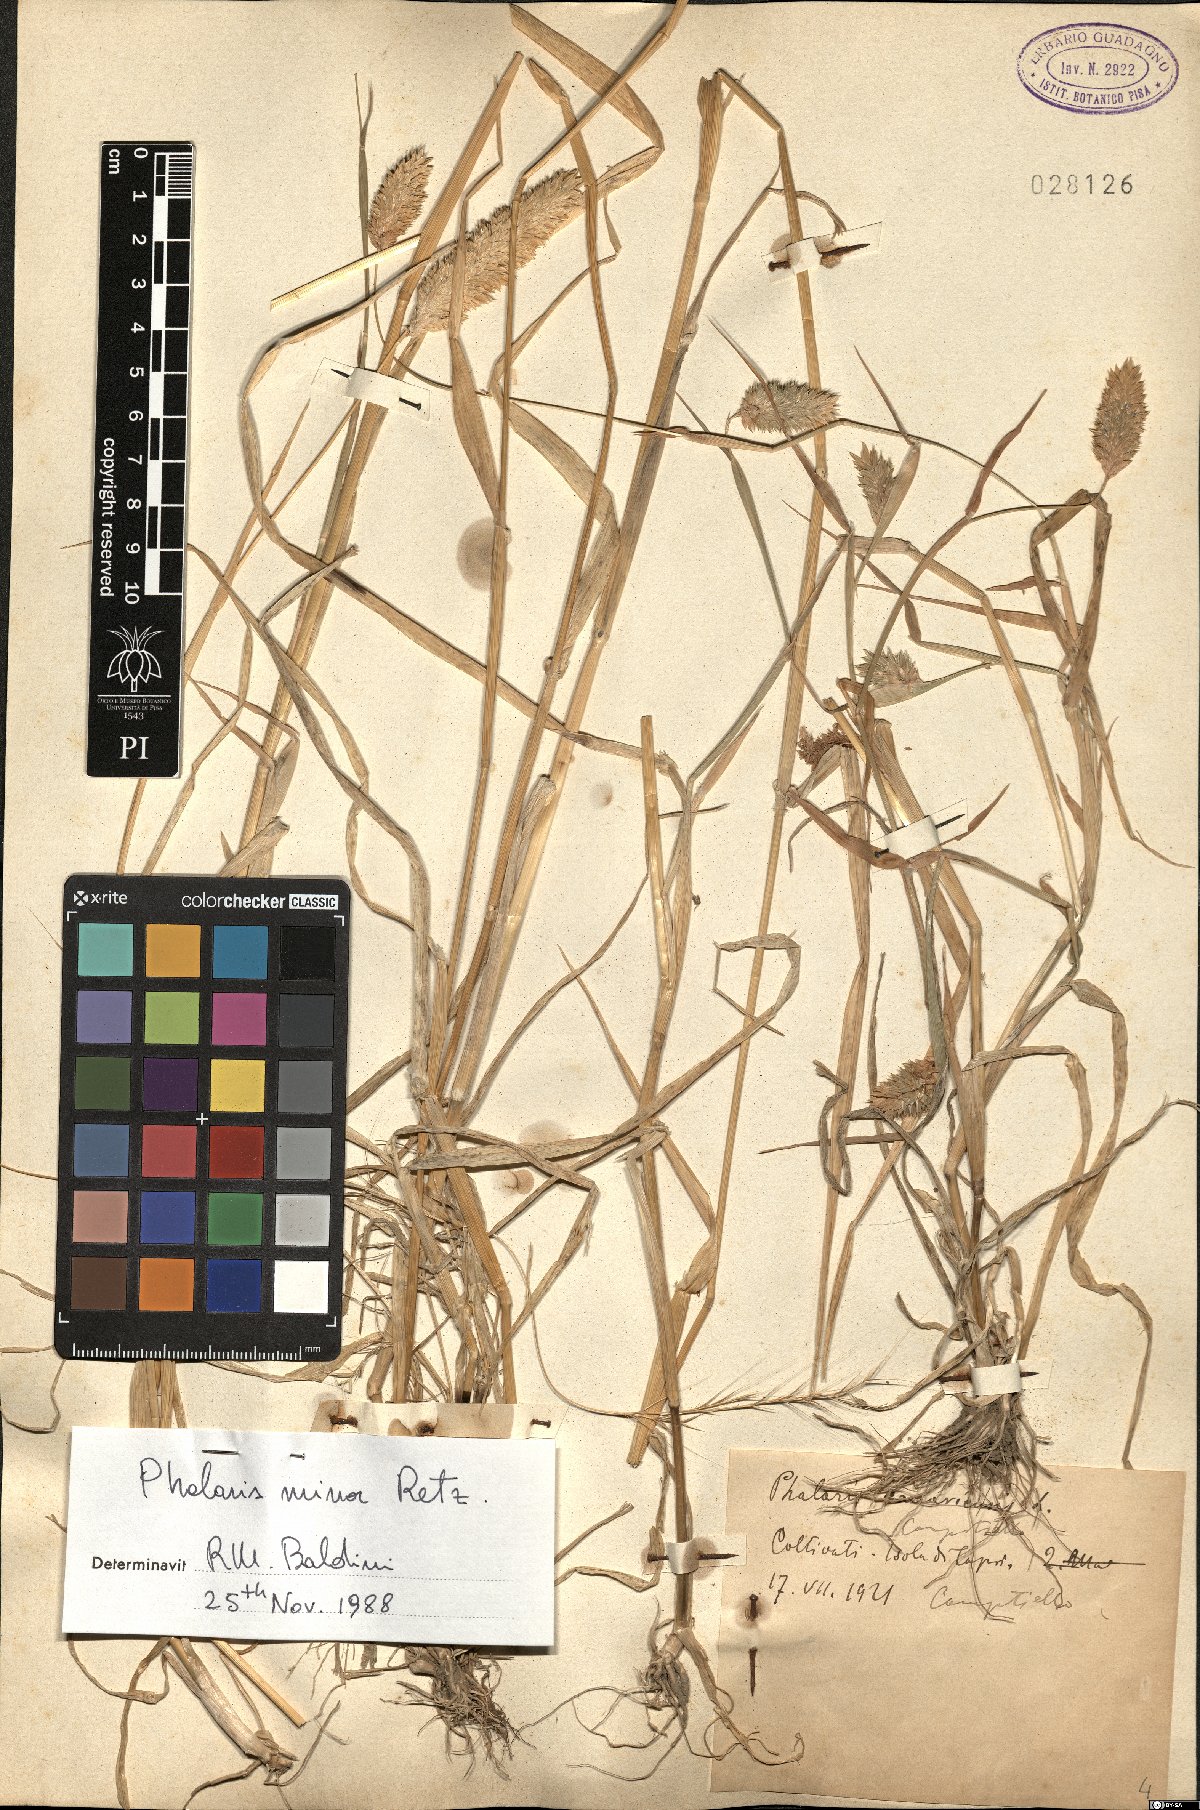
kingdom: Plantae
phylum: Tracheophyta
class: Liliopsida
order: Poales
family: Poaceae
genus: Phalaris
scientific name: Phalaris minor
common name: Littleseed canarygrass
